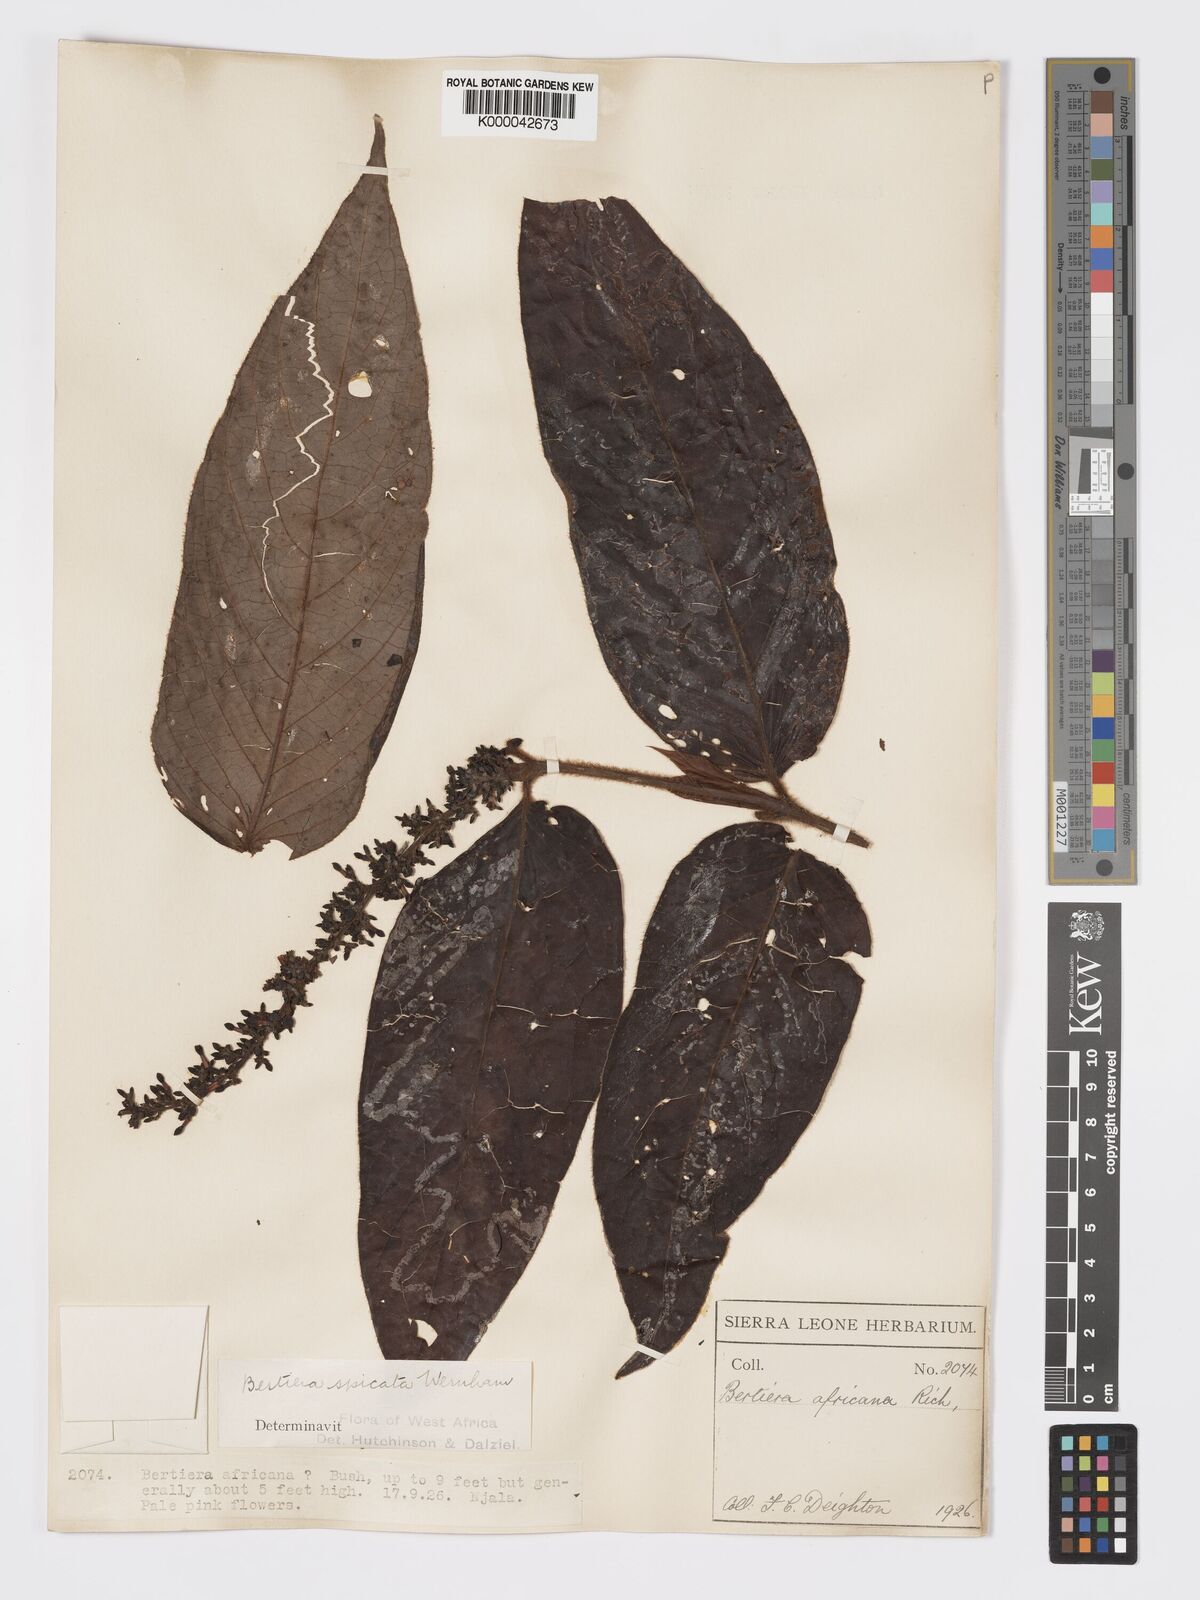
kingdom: Plantae
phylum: Tracheophyta
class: Magnoliopsida
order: Gentianales
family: Rubiaceae
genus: Bertiera
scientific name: Bertiera
